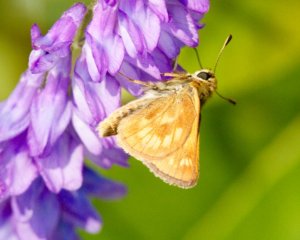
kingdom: Animalia
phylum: Arthropoda
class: Insecta
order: Lepidoptera
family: Hesperiidae
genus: Polites
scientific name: Polites
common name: Long Dash Skipper
